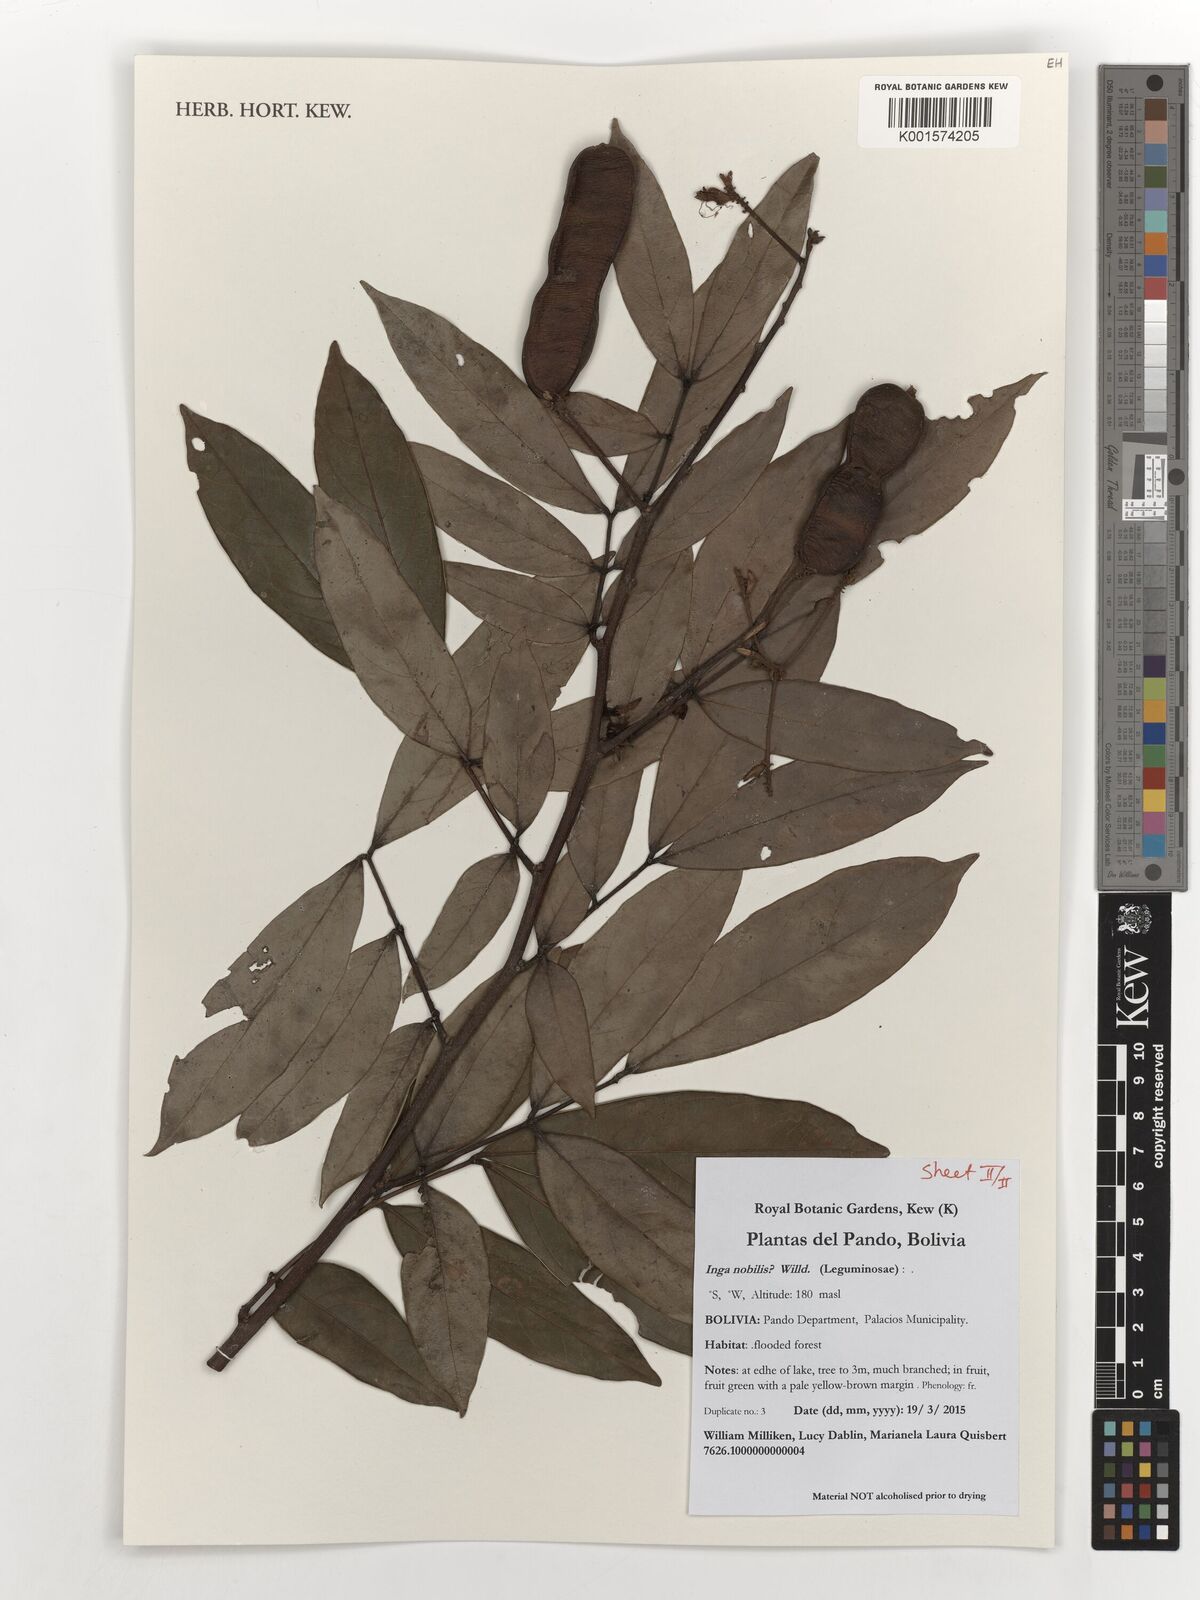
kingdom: Plantae
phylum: Tracheophyta
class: Magnoliopsida
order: Fabales
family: Fabaceae
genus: Inga
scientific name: Inga nobilis
